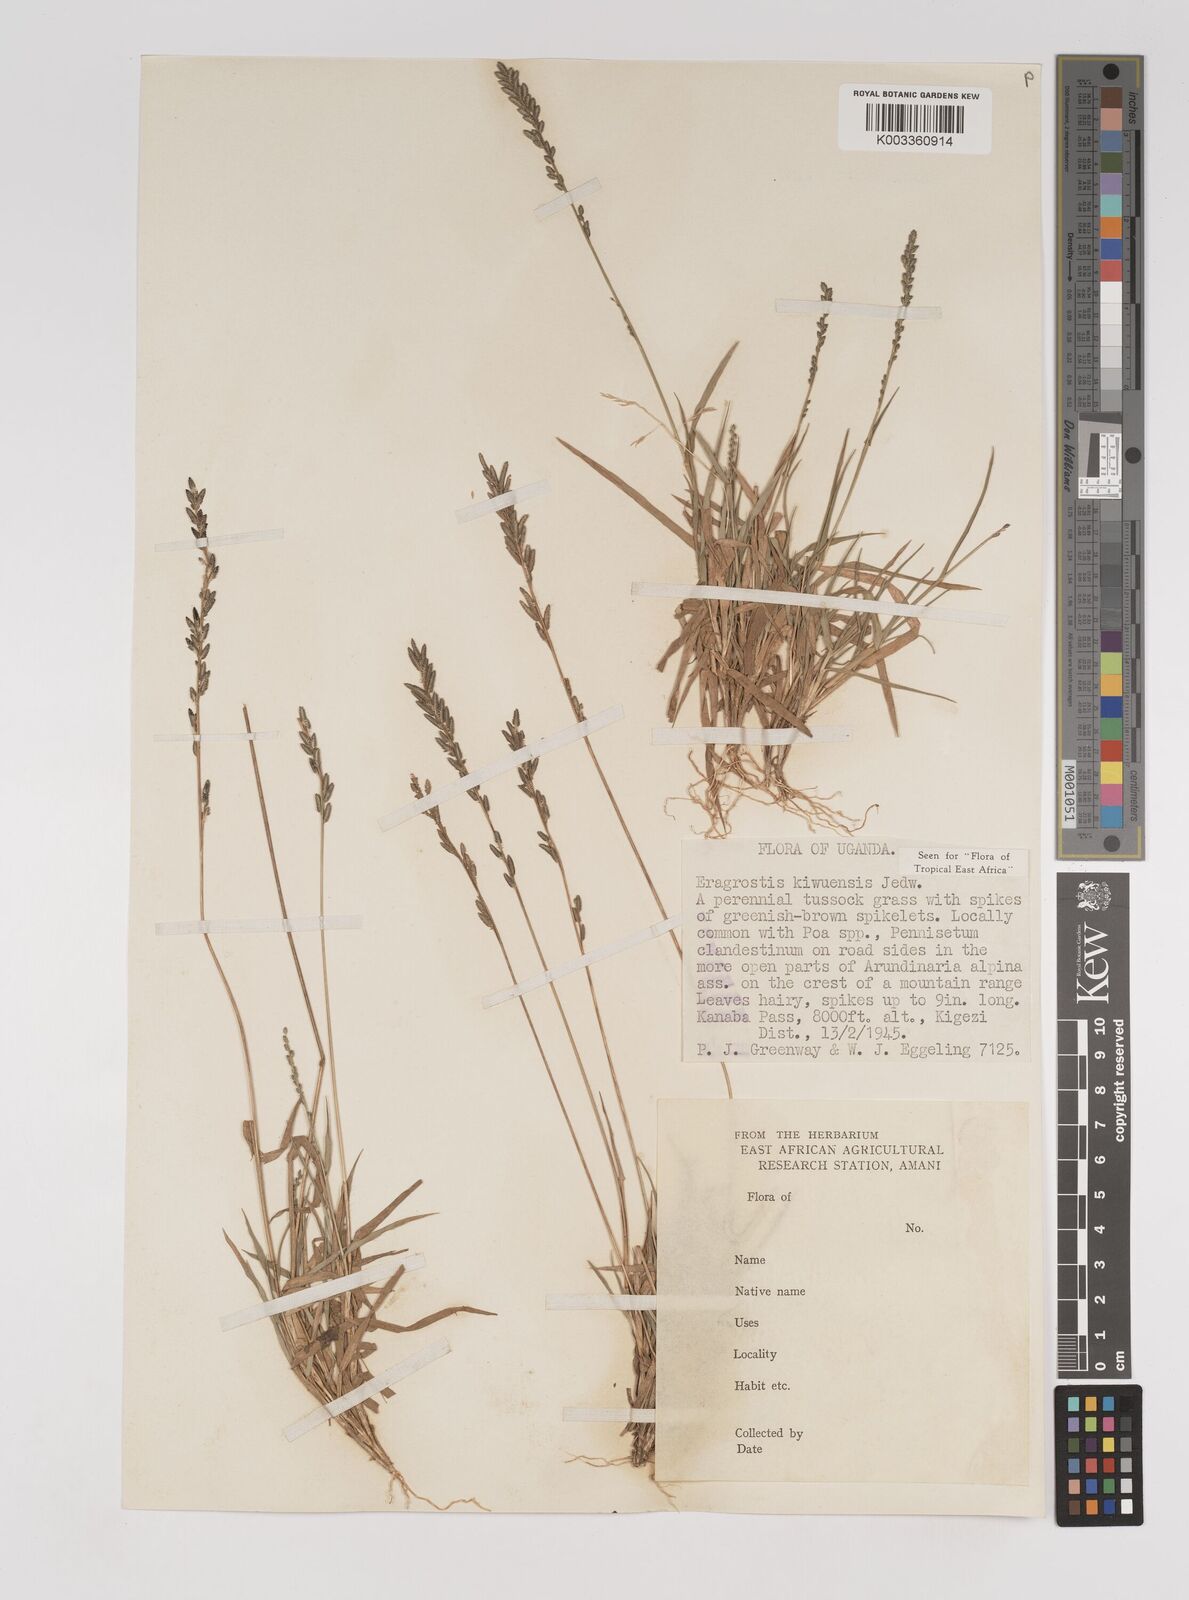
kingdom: Plantae
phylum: Tracheophyta
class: Liliopsida
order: Poales
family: Poaceae
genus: Eragrostis
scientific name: Eragrostis schweinfurthii
